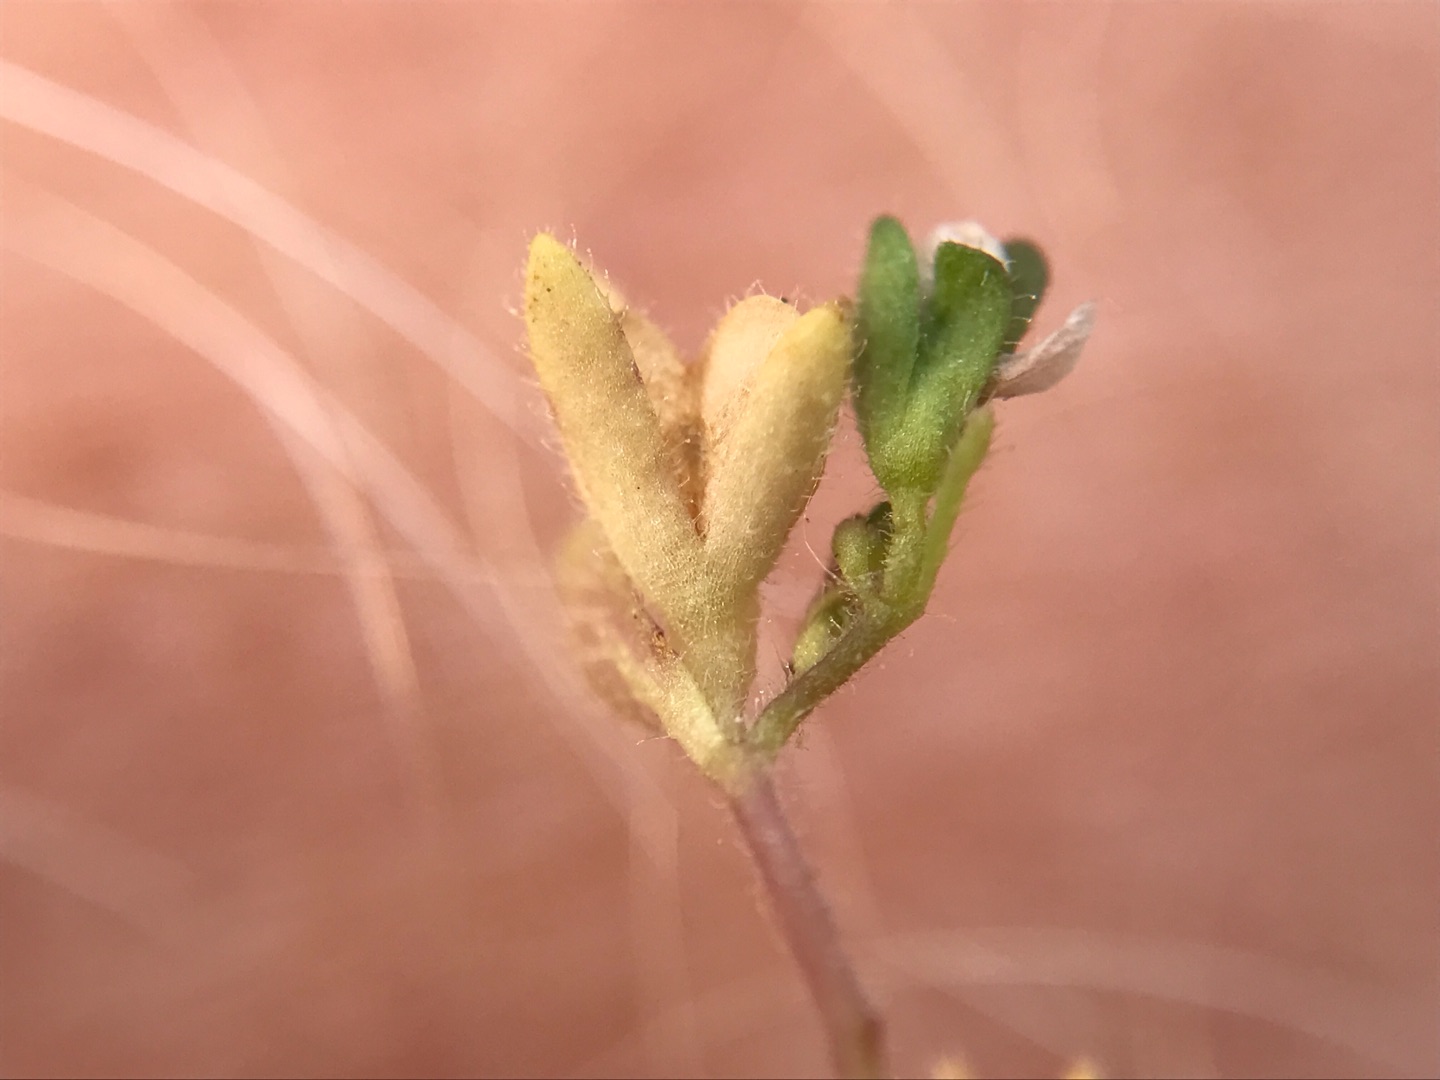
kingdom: Plantae
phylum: Tracheophyta
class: Magnoliopsida
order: Lamiales
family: Plantaginaceae
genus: Veronica
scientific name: Veronica arvensis
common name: Mark-ærenpris
